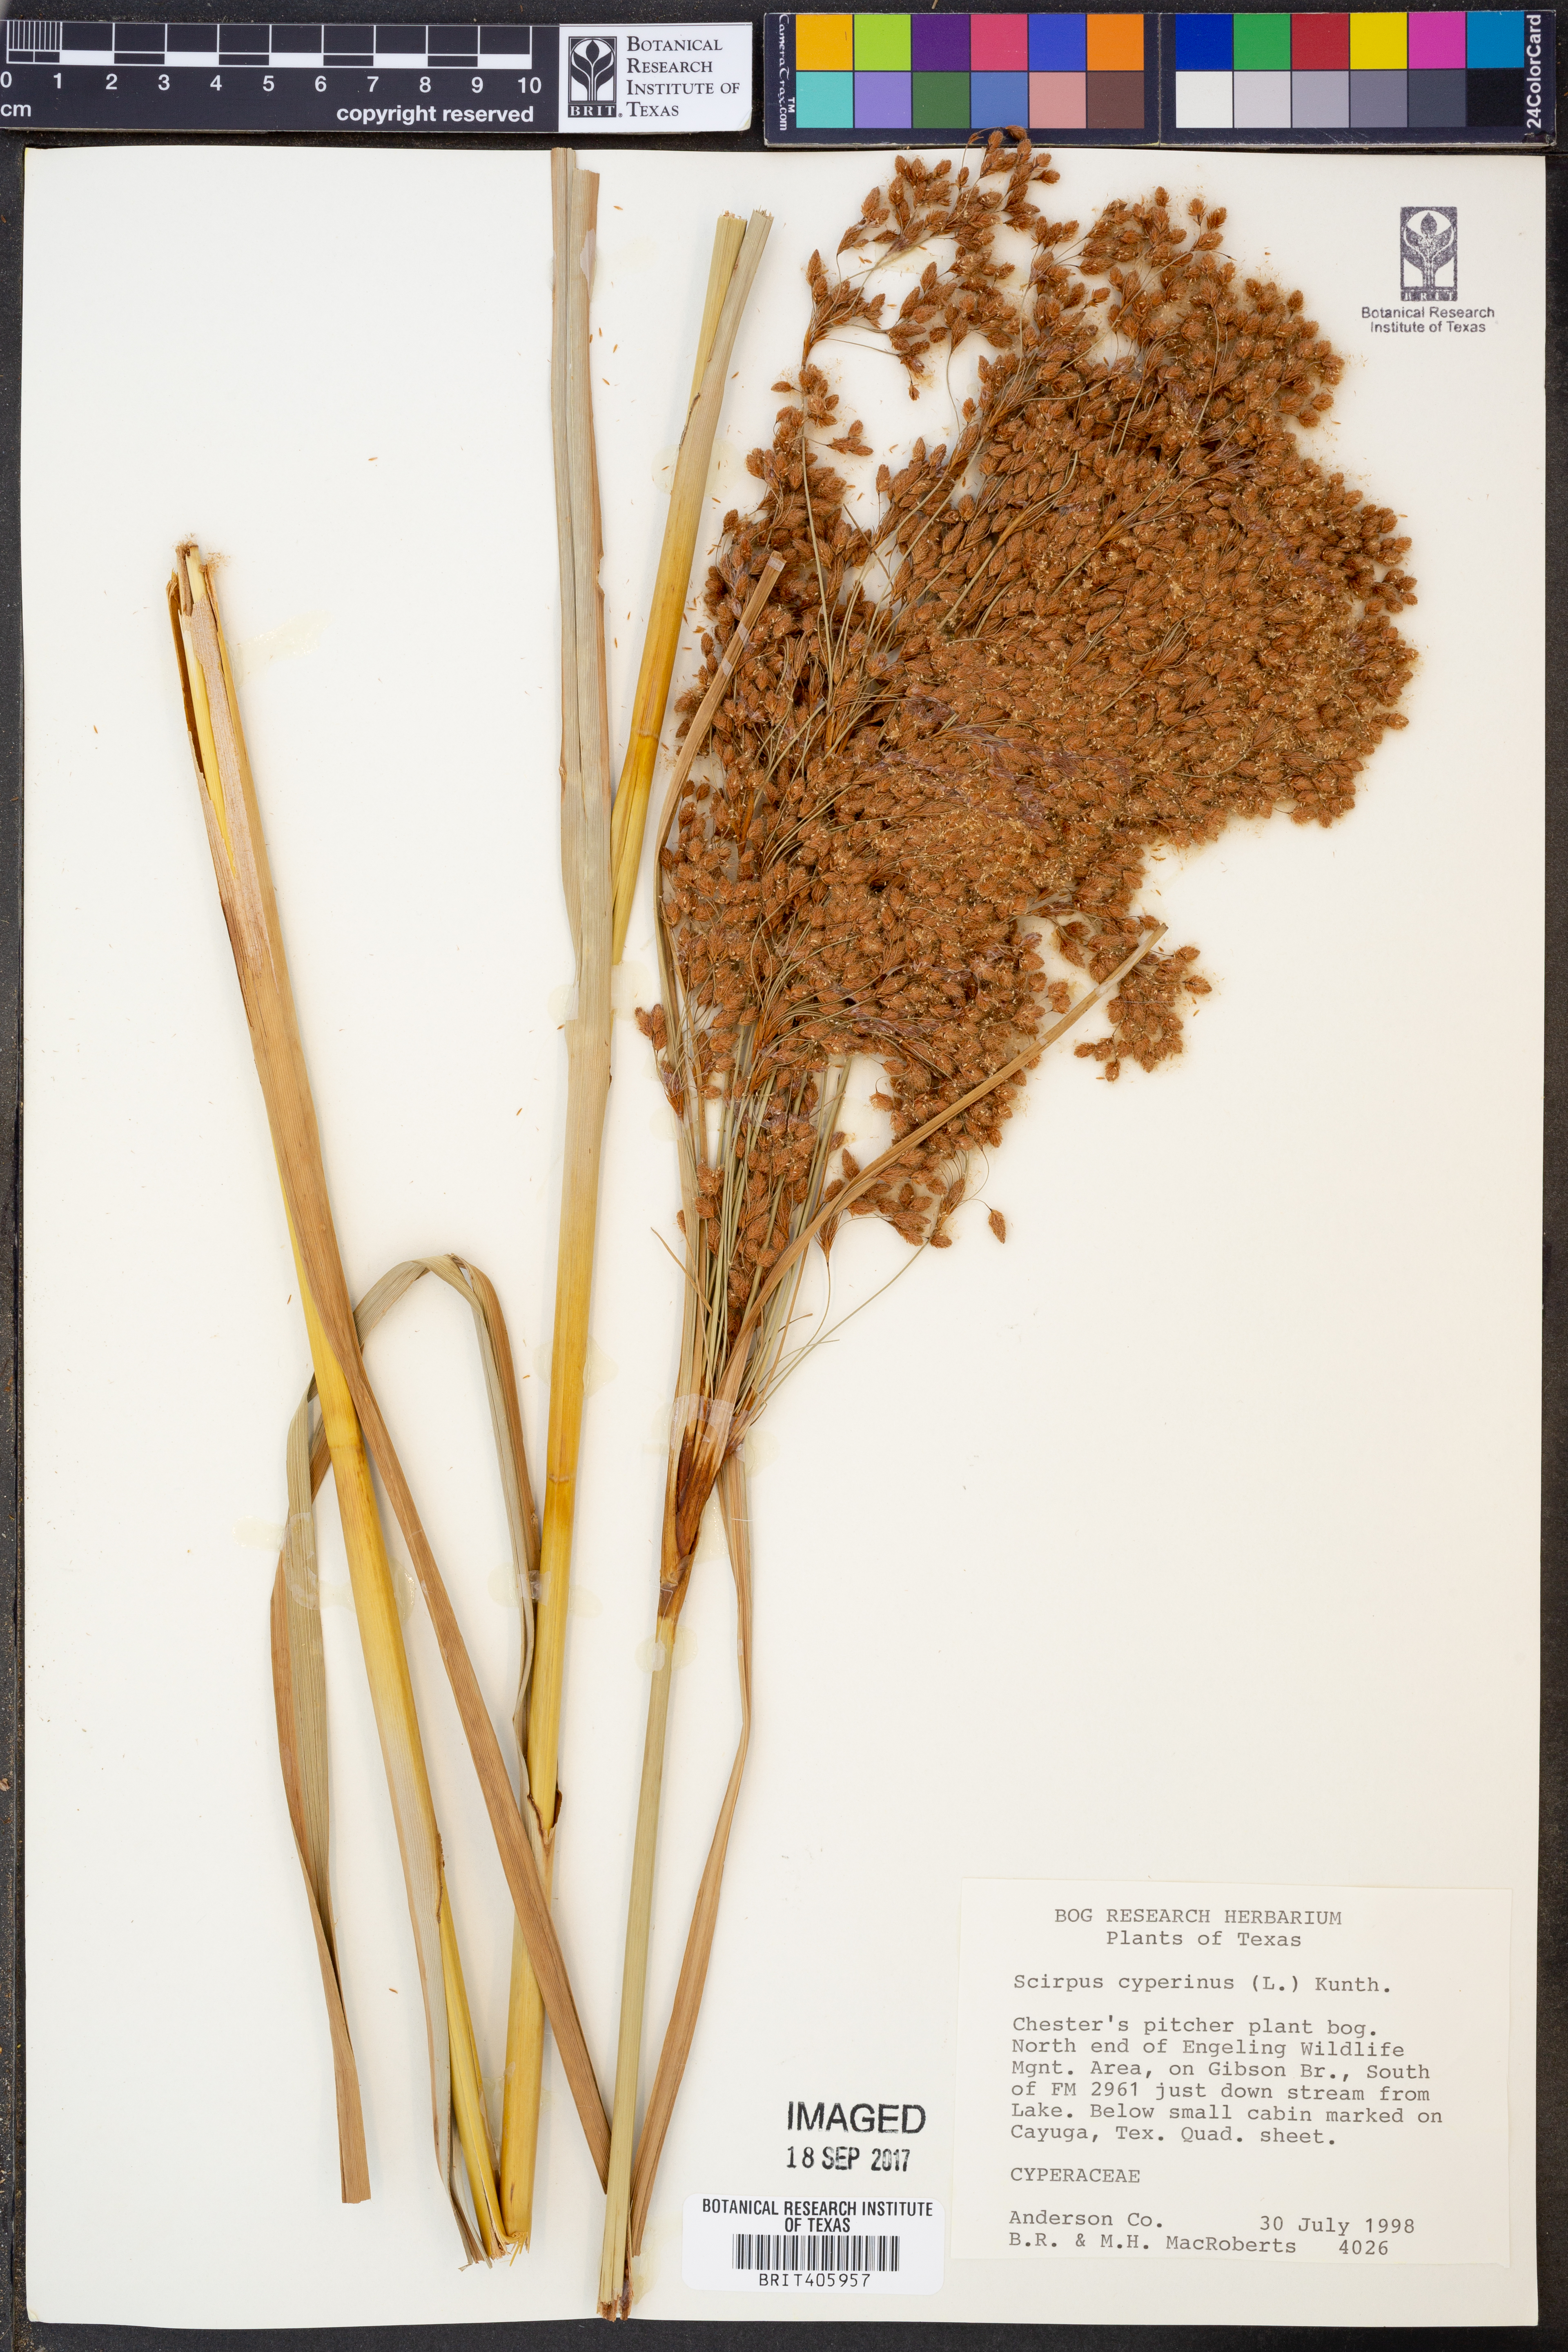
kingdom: Plantae
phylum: Tracheophyta
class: Liliopsida
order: Poales
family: Cyperaceae
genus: Scirpus
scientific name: Scirpus cyperinus
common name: Black-sheathed bulrush
